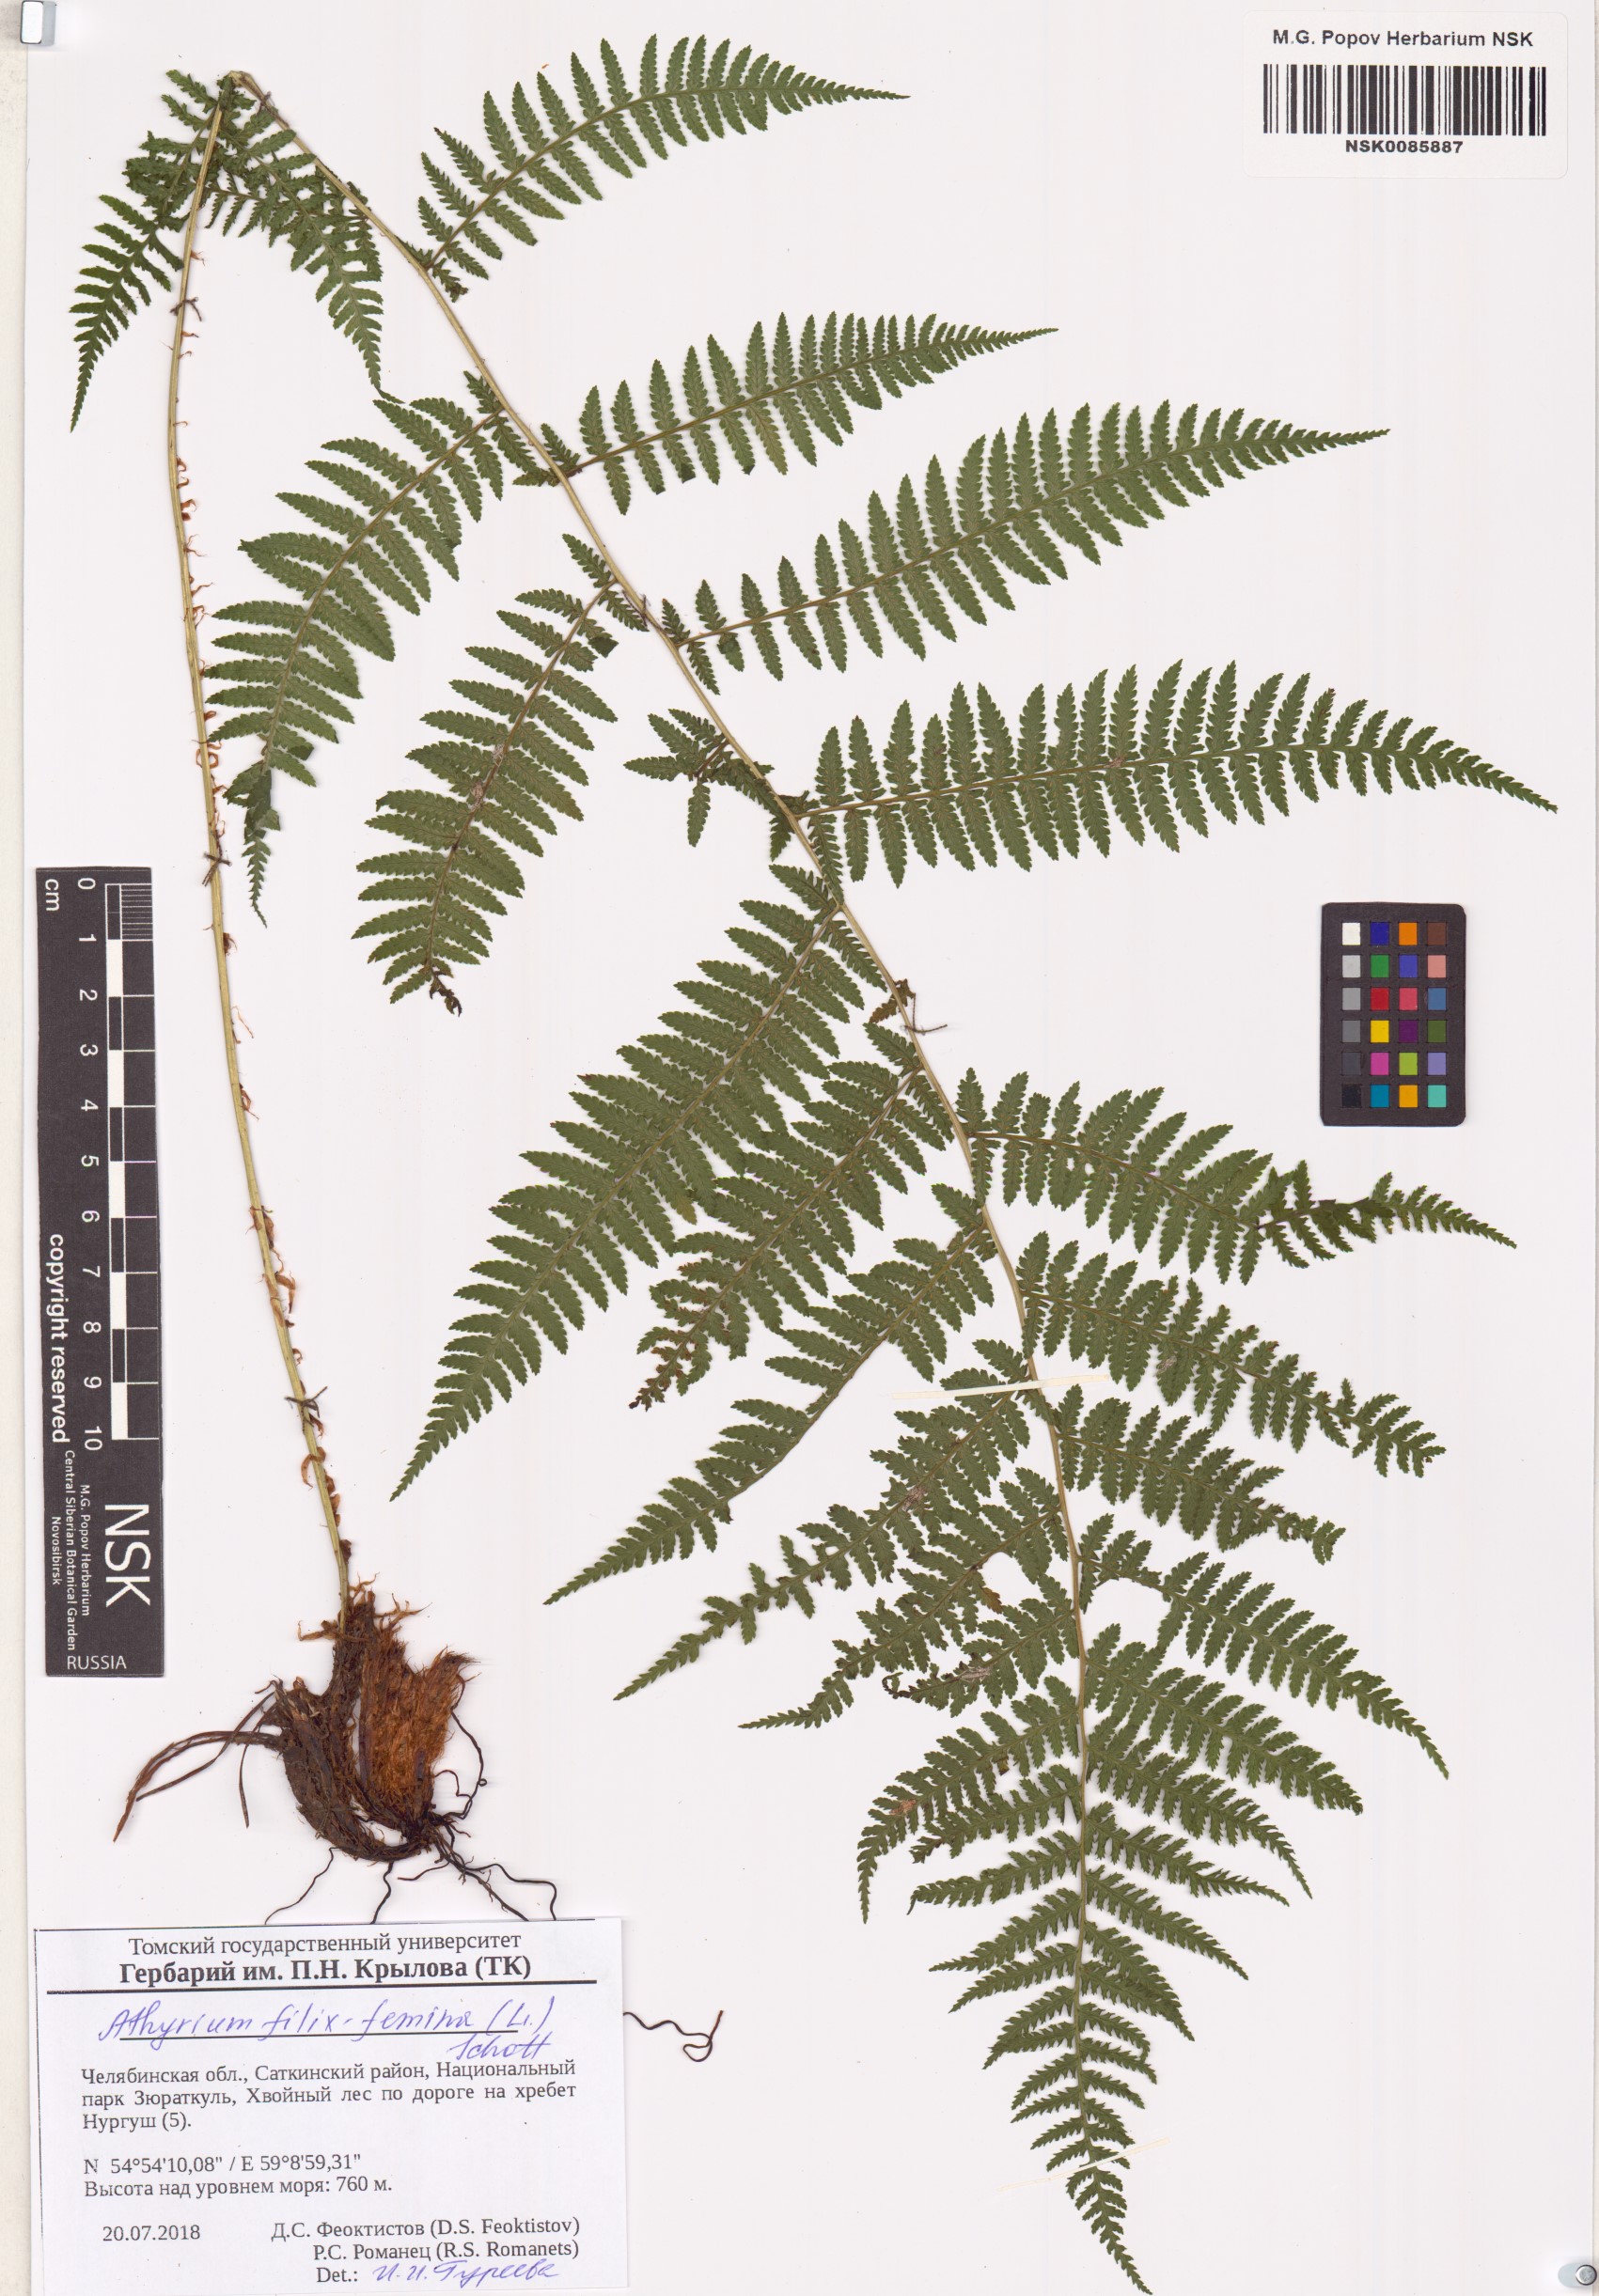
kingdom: Plantae
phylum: Tracheophyta
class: Polypodiopsida
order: Polypodiales
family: Athyriaceae
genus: Athyrium
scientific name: Athyrium filix-femina
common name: Lady fern
